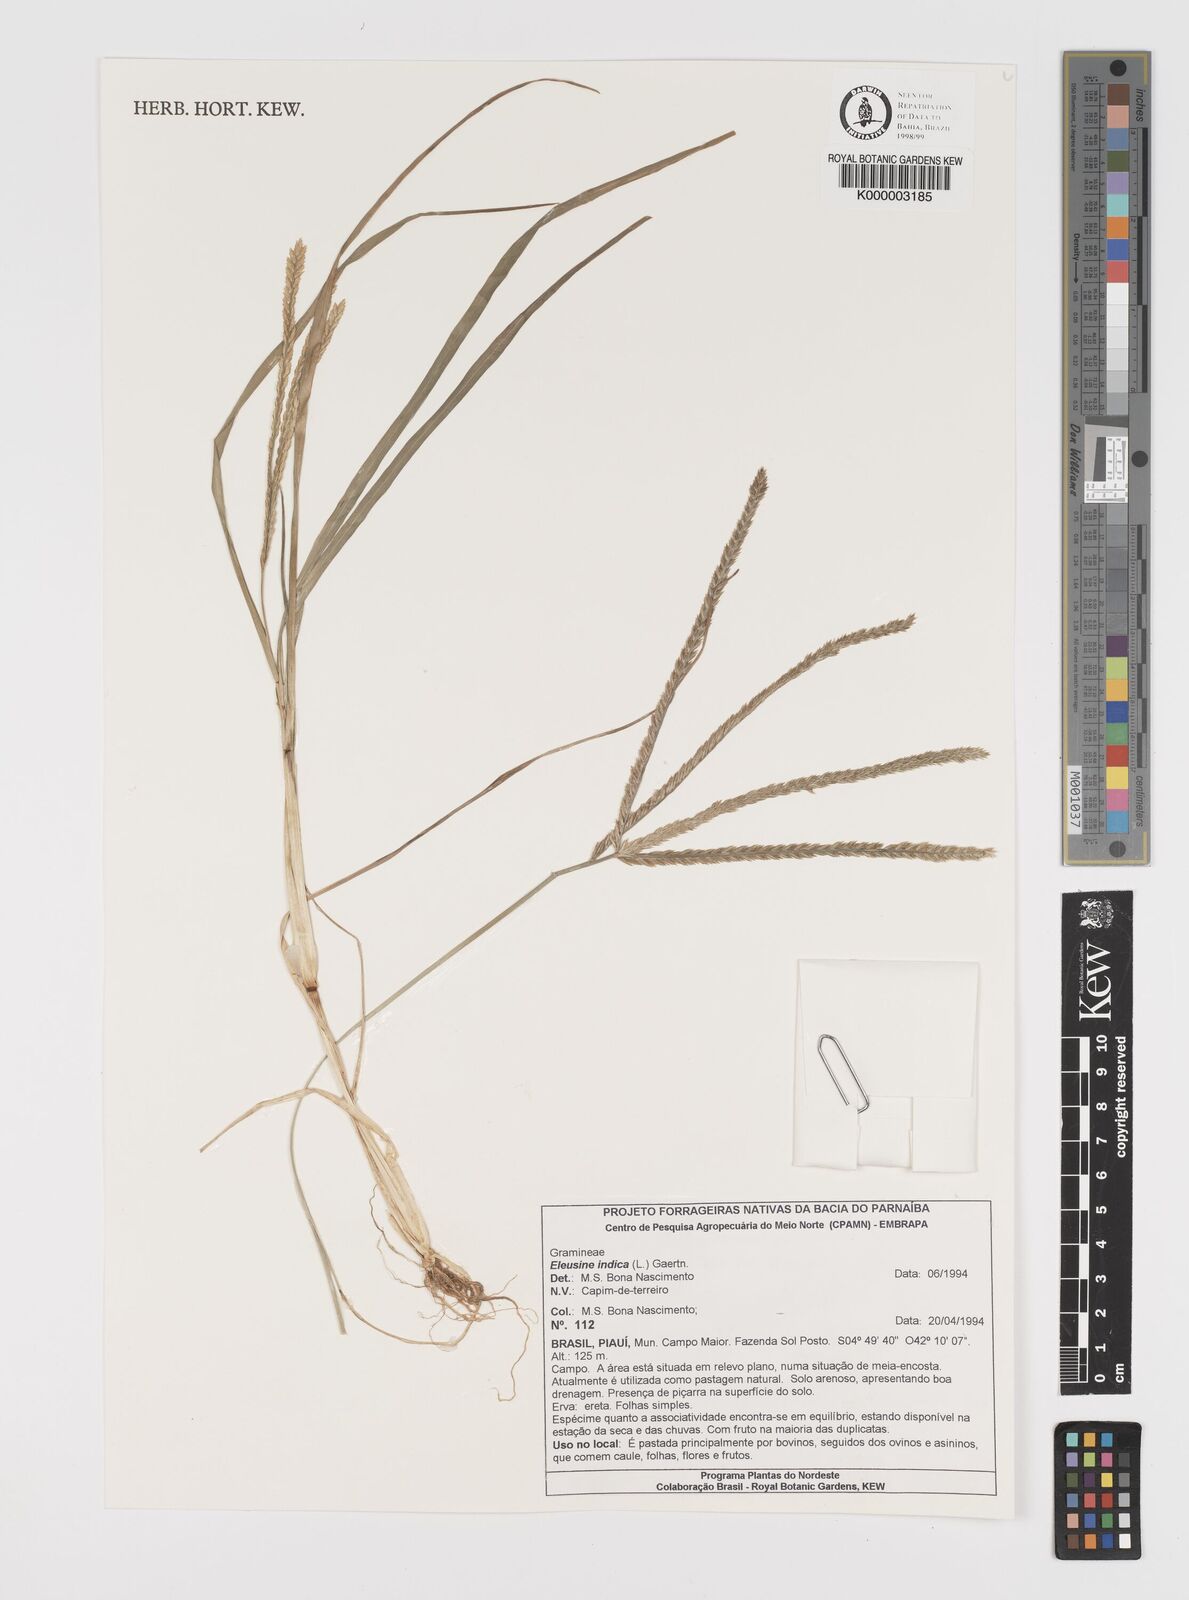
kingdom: Plantae
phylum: Tracheophyta
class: Liliopsida
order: Poales
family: Poaceae
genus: Eleusine
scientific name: Eleusine indica
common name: Yard-grass
